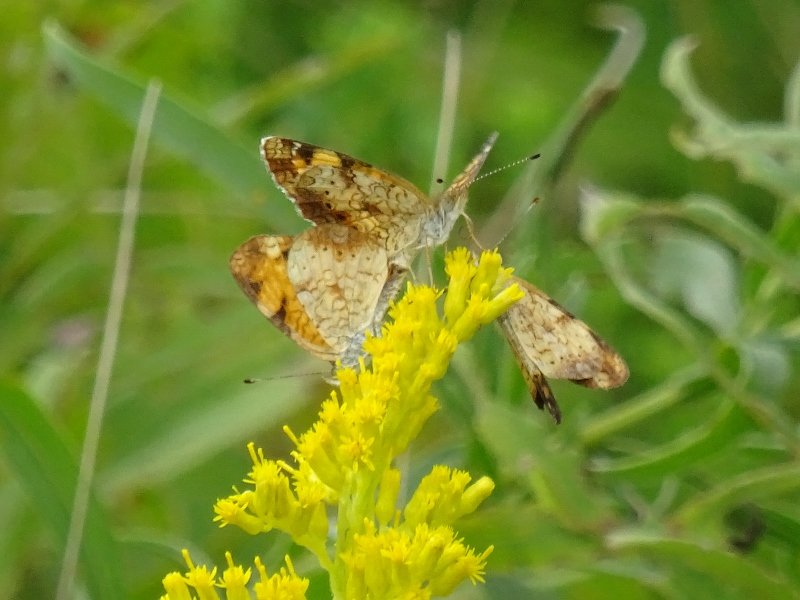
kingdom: Animalia
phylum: Arthropoda
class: Insecta
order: Lepidoptera
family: Nymphalidae
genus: Phyciodes
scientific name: Phyciodes tharos
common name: Pearl Crescent
